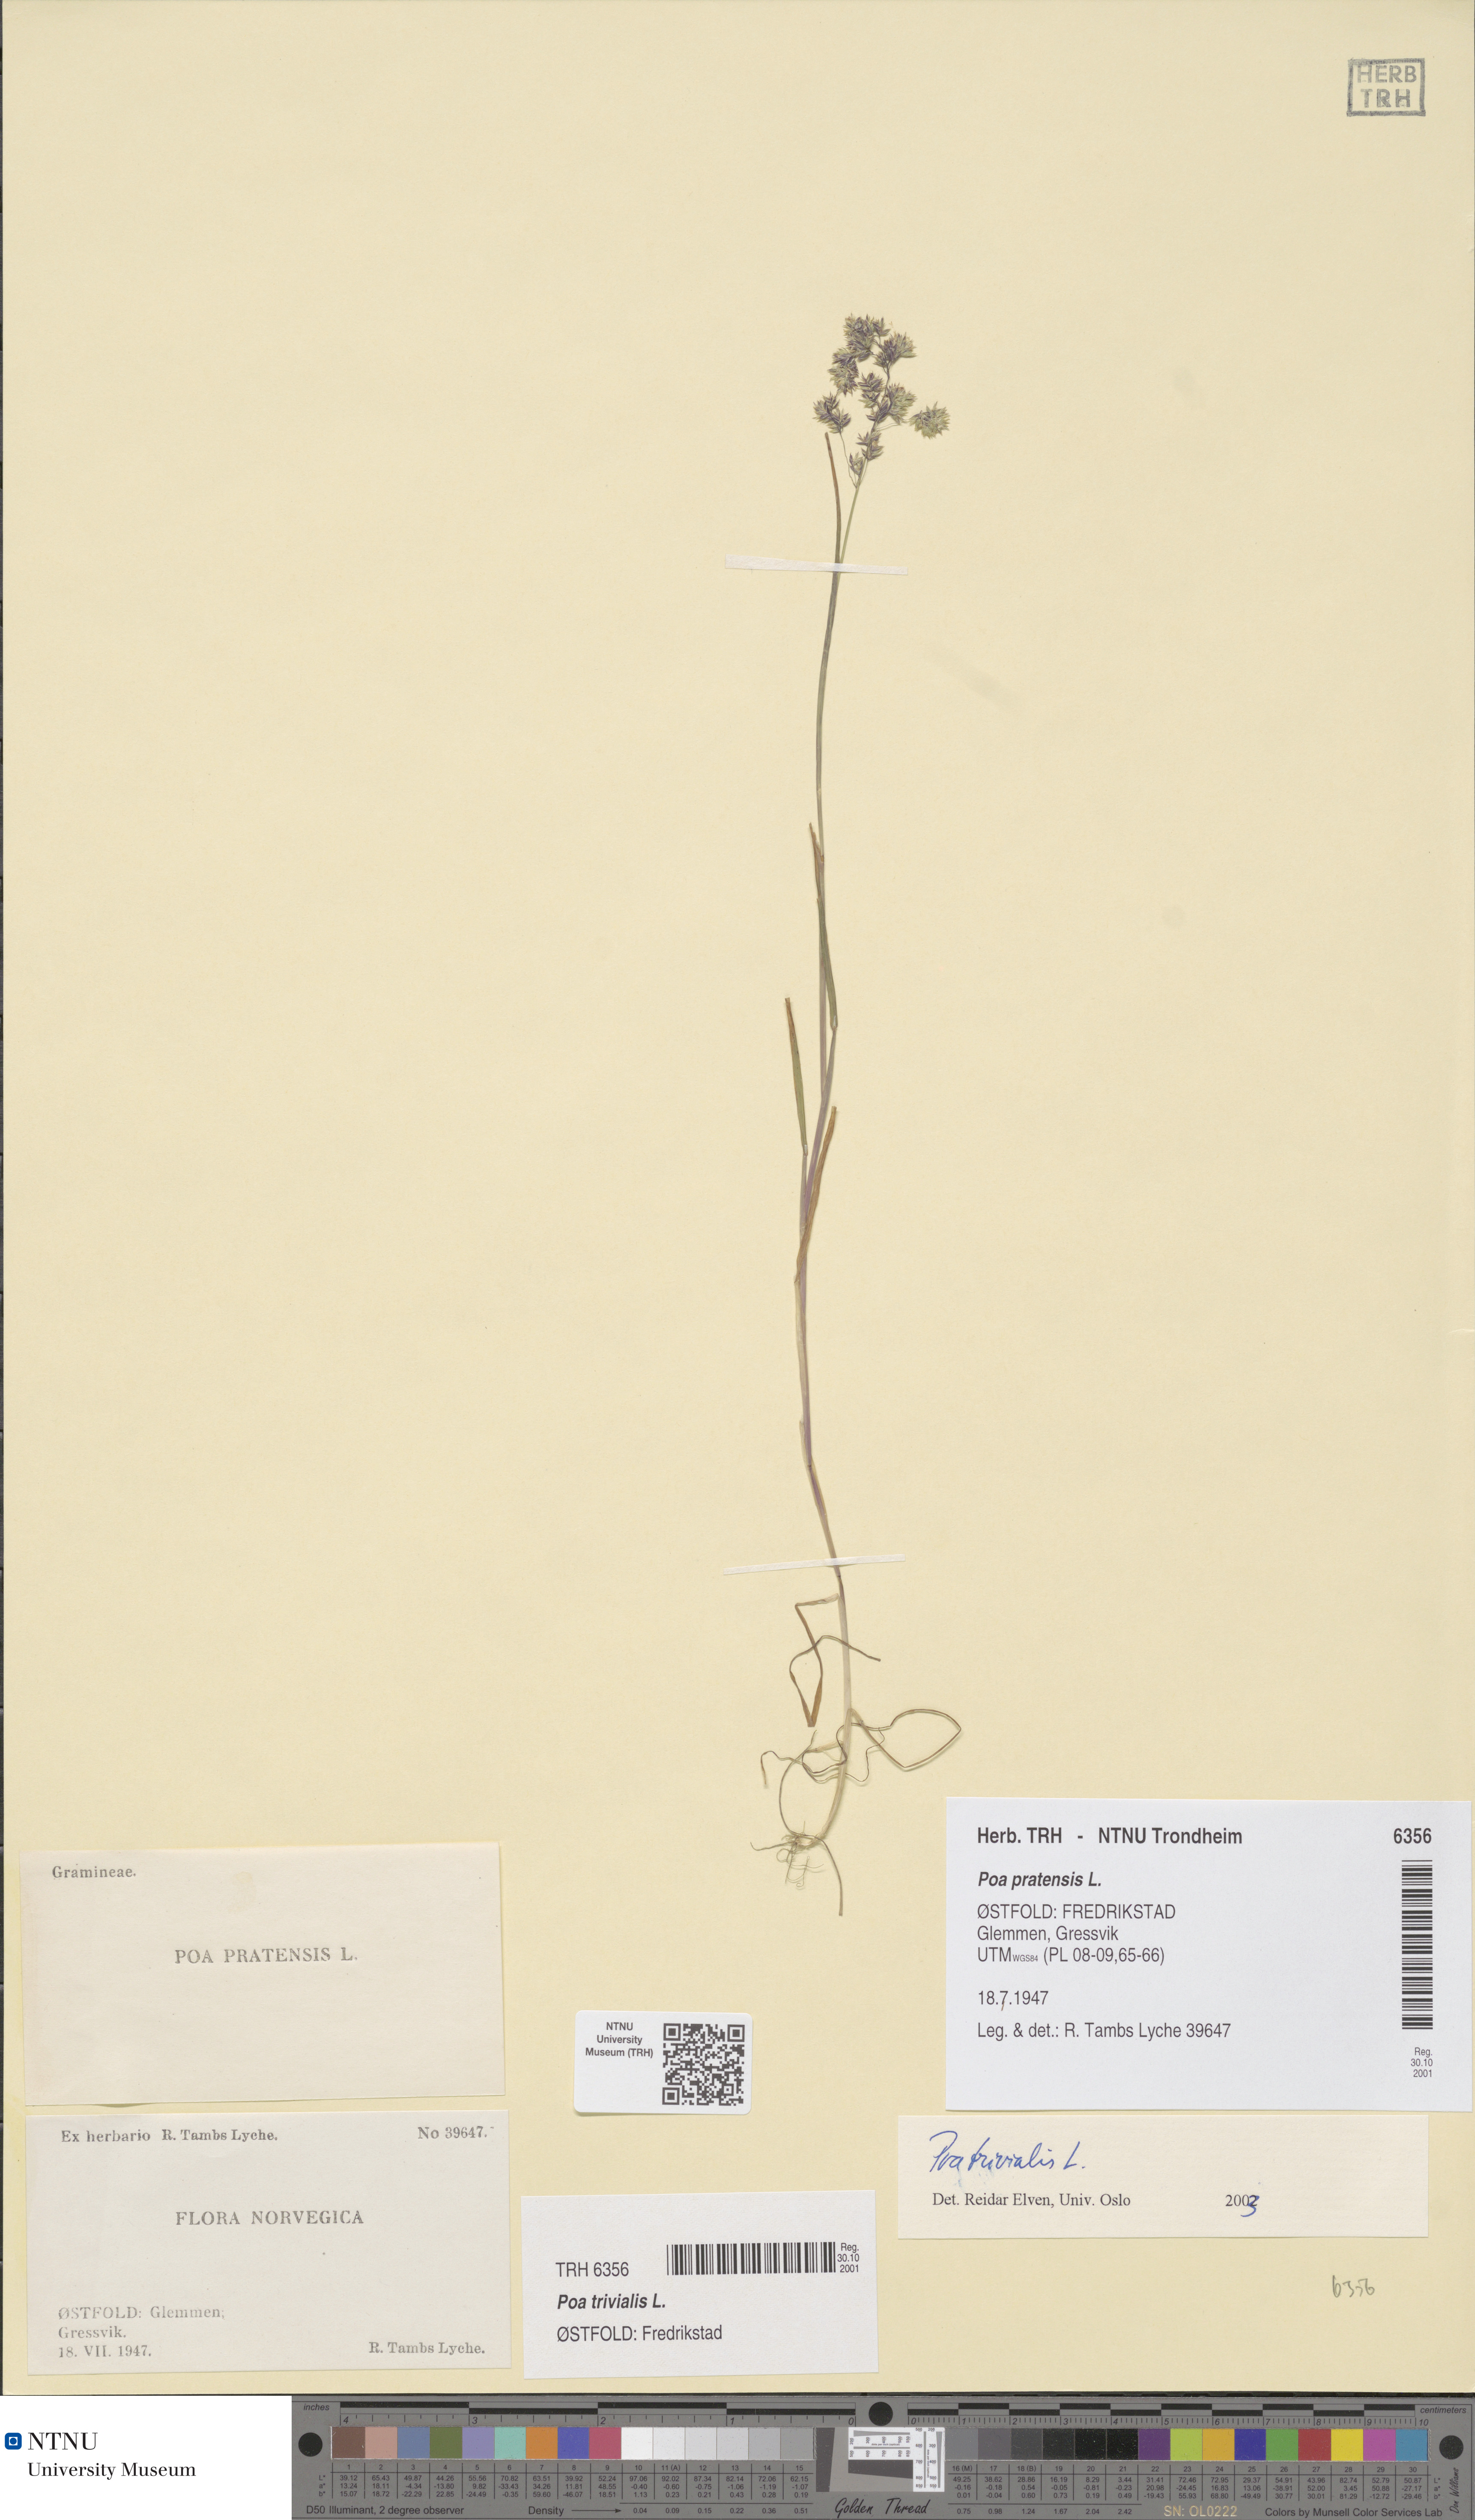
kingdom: Plantae
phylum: Tracheophyta
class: Liliopsida
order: Poales
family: Poaceae
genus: Poa
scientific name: Poa trivialis
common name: Rough bluegrass
